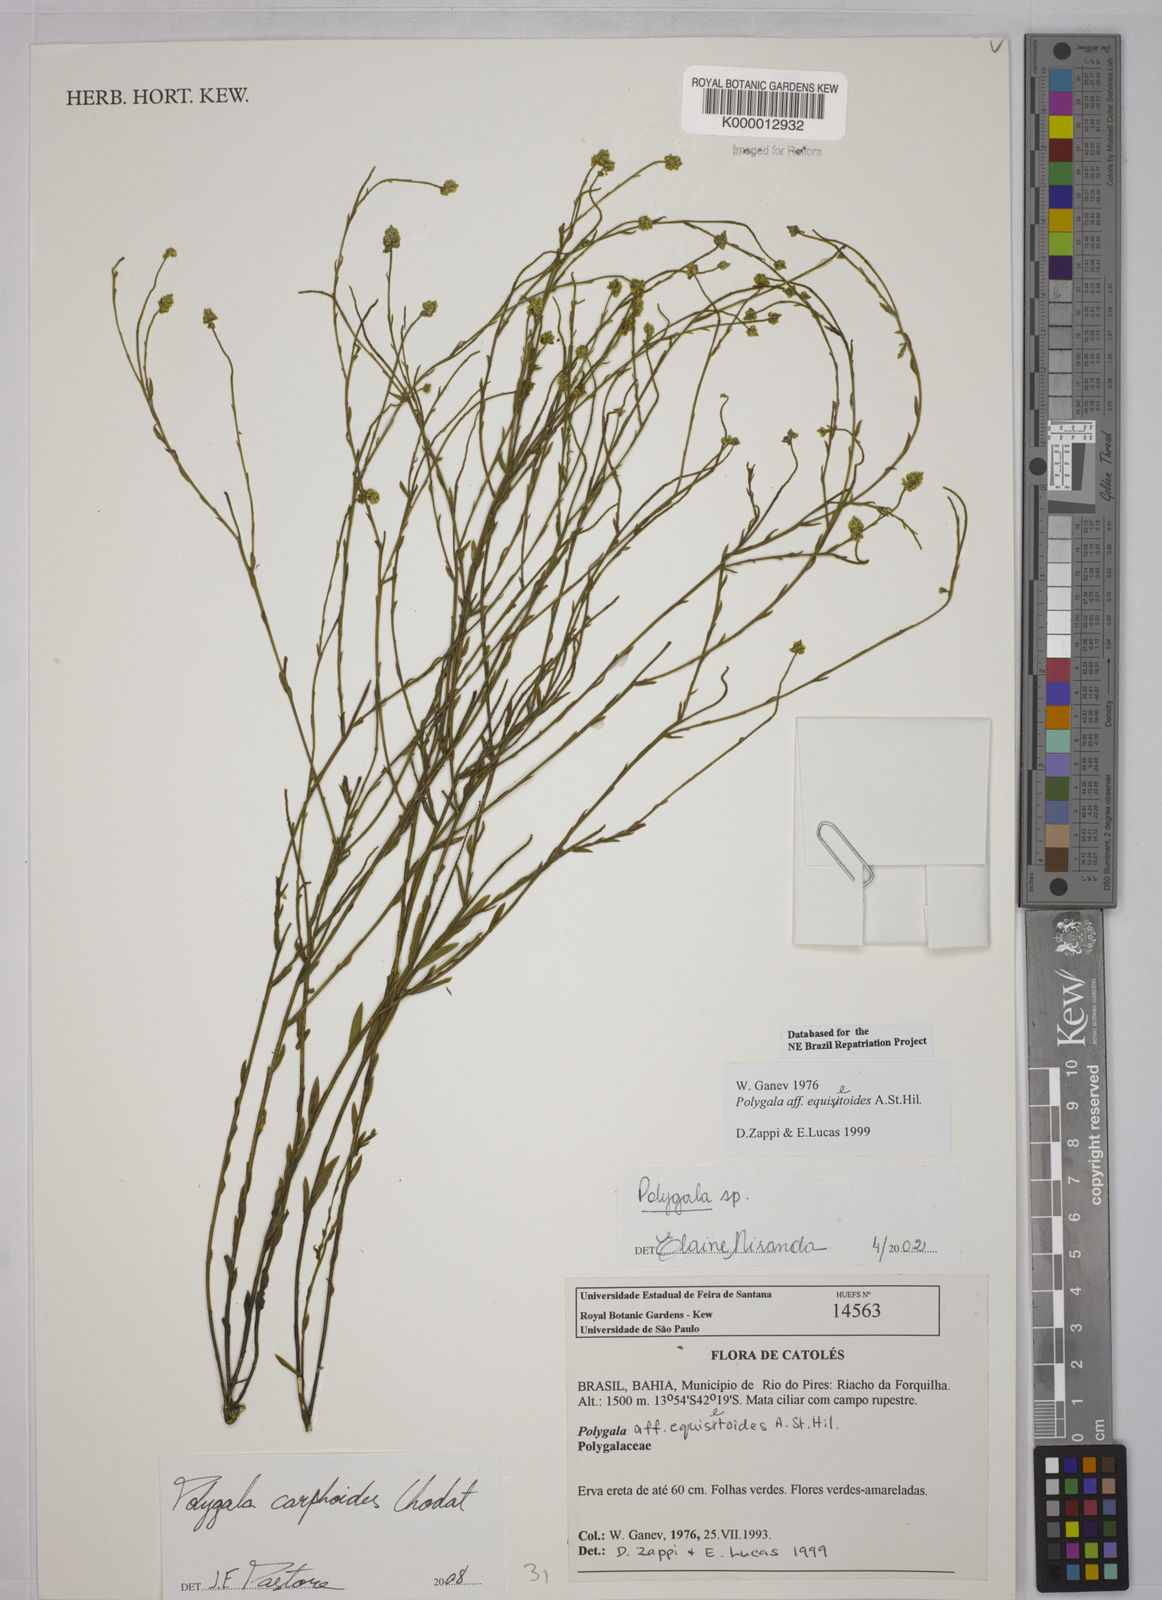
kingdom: Plantae
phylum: Tracheophyta
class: Magnoliopsida
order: Fabales
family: Polygalaceae
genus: Polygala
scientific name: Polygala
